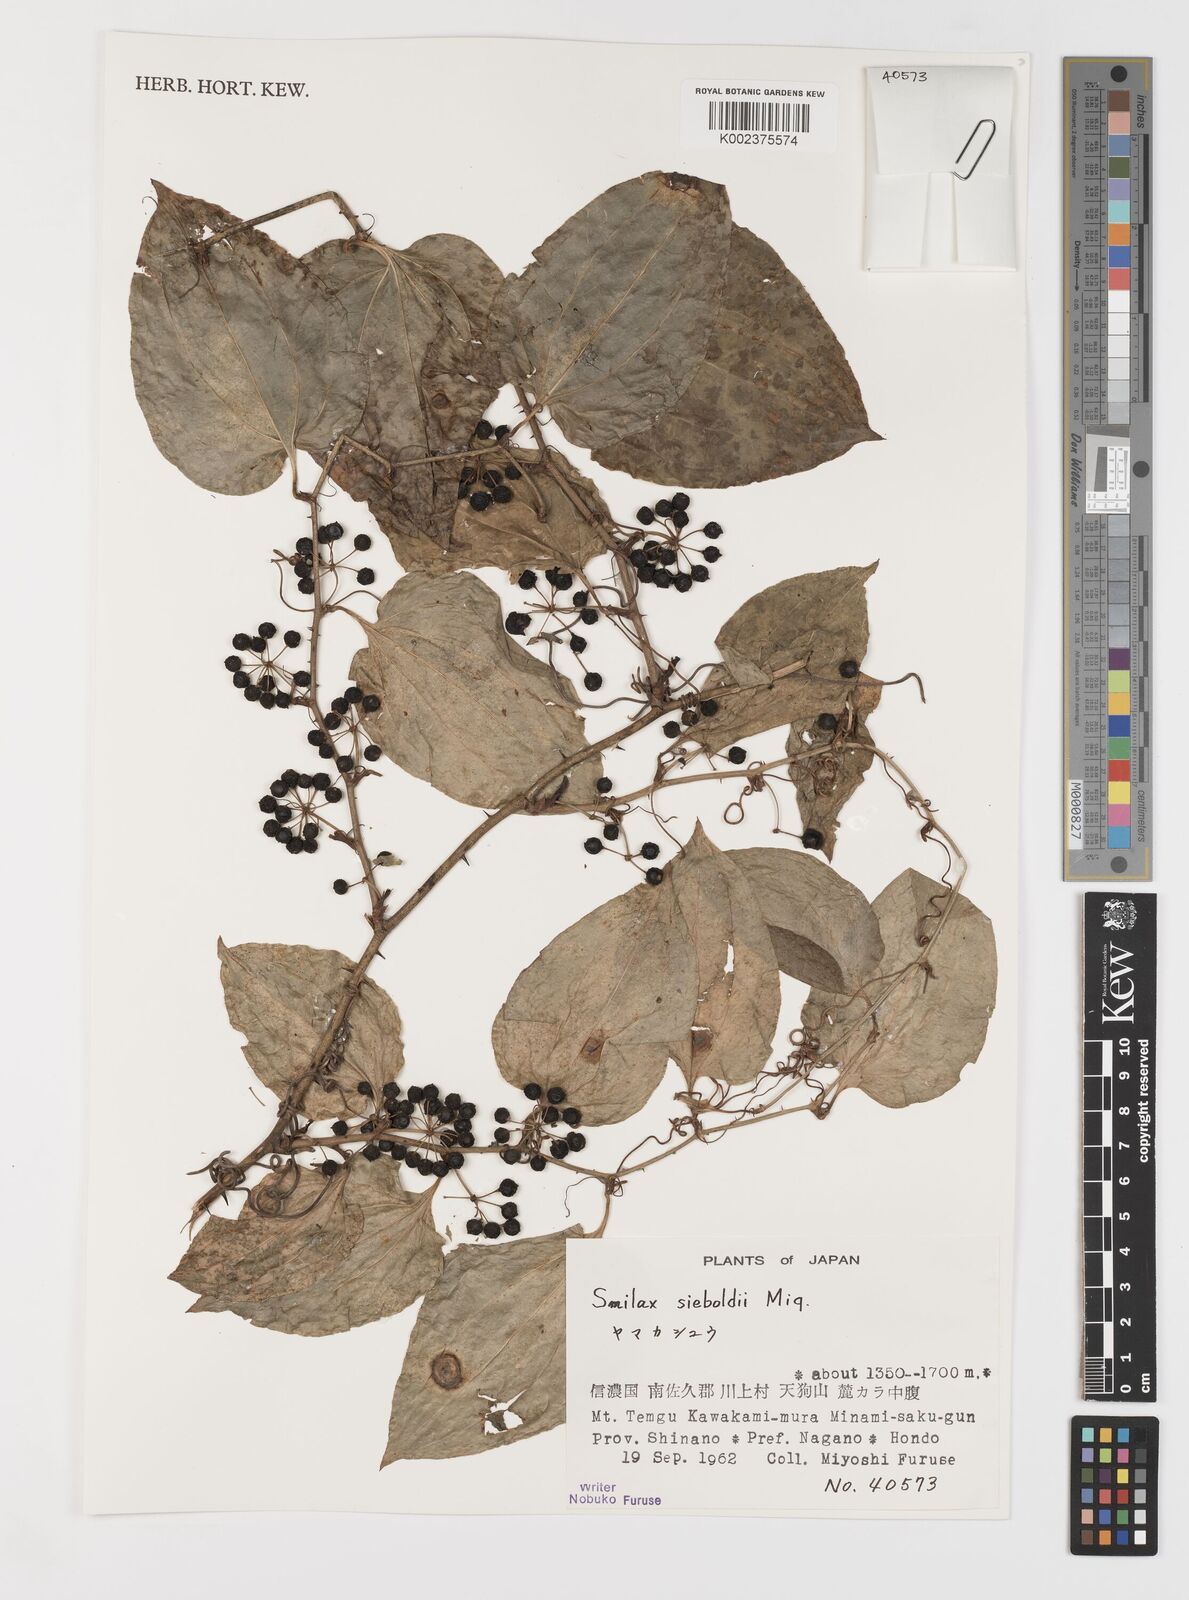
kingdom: Plantae
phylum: Tracheophyta
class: Liliopsida
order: Liliales
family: Smilacaceae
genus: Smilax
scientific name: Smilax sieboldii
